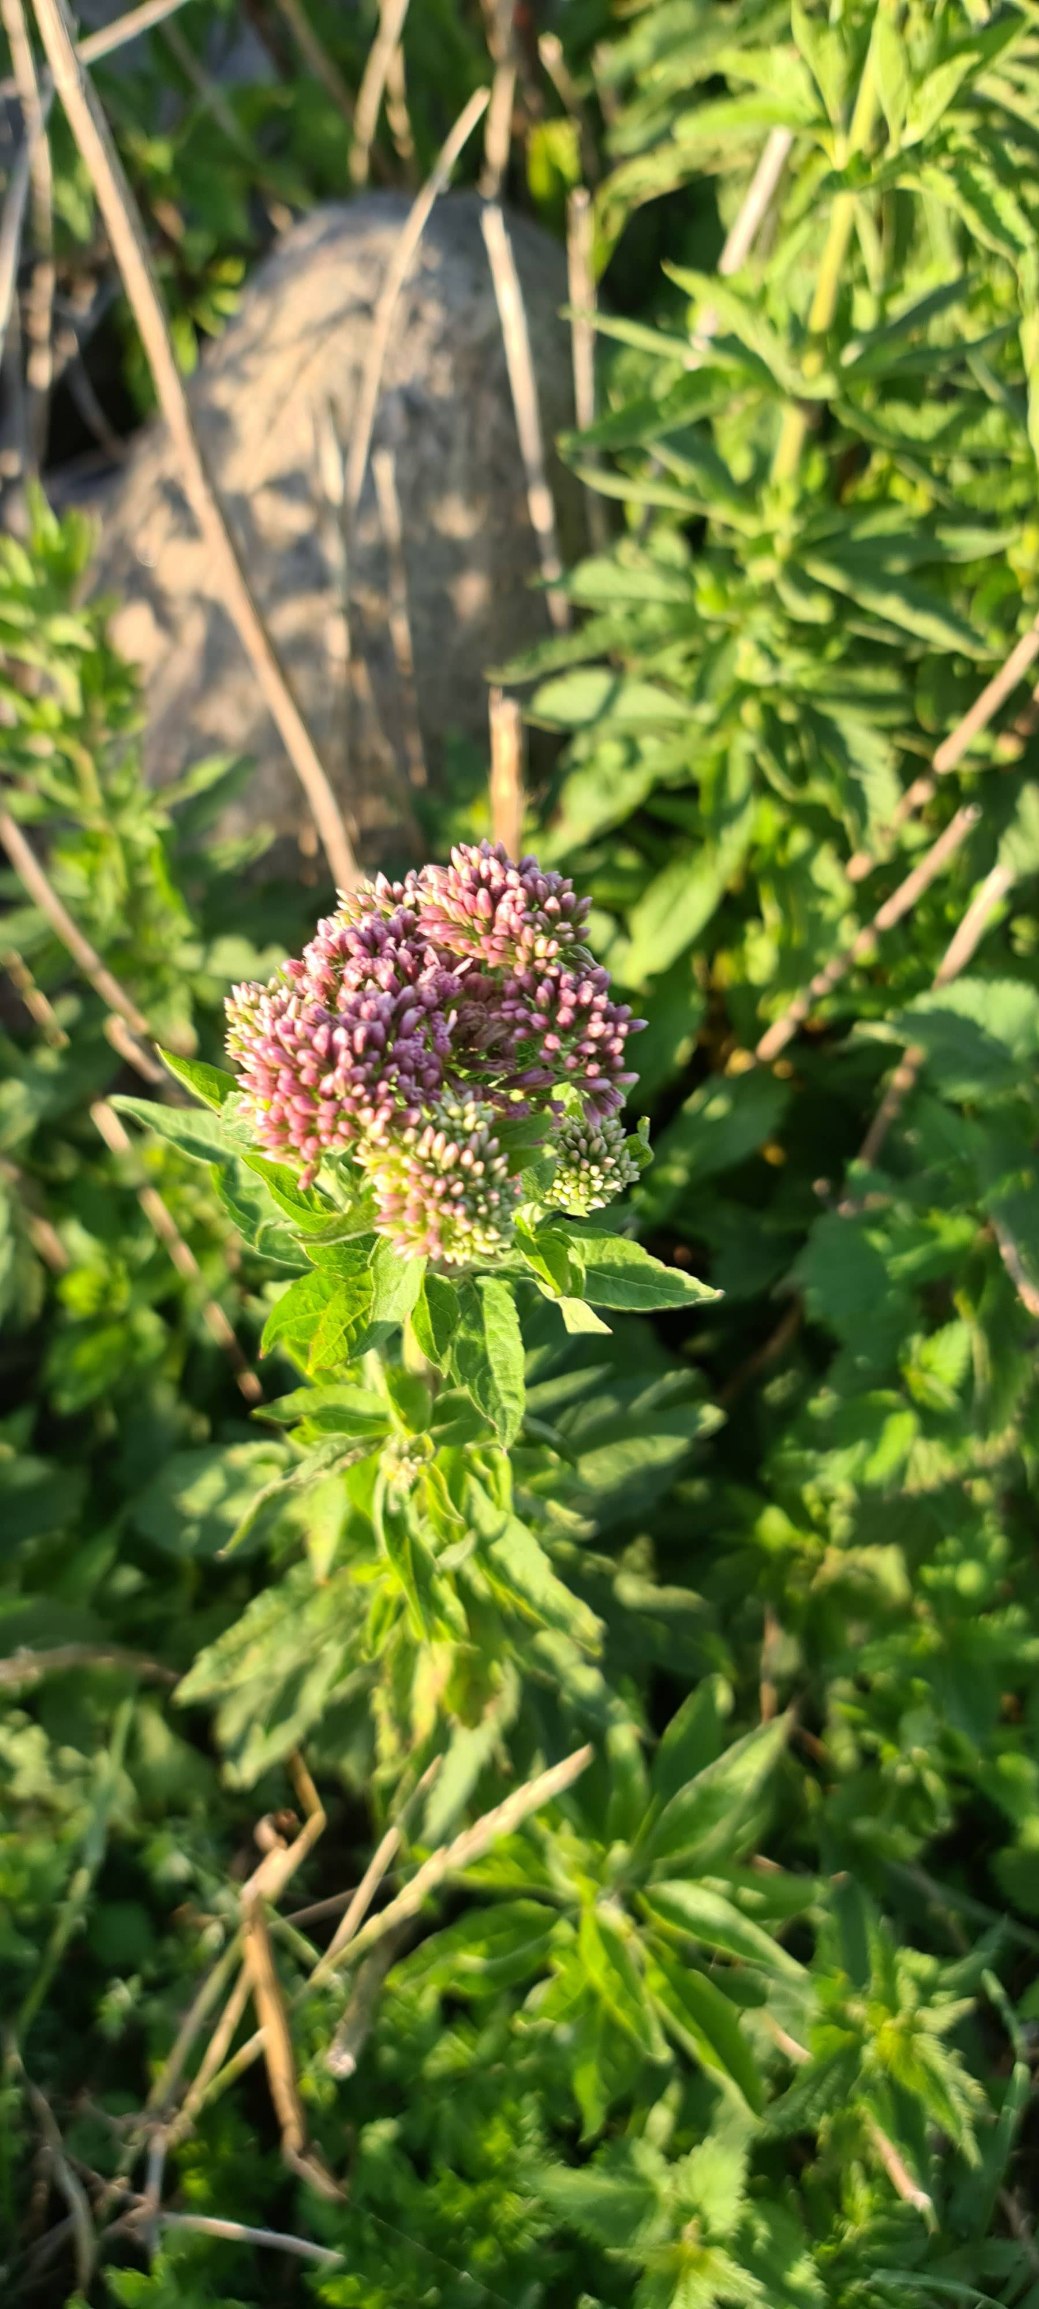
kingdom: Plantae
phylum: Tracheophyta
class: Magnoliopsida
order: Asterales
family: Asteraceae
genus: Eupatorium
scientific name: Eupatorium cannabinum
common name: Hjortetrøst
